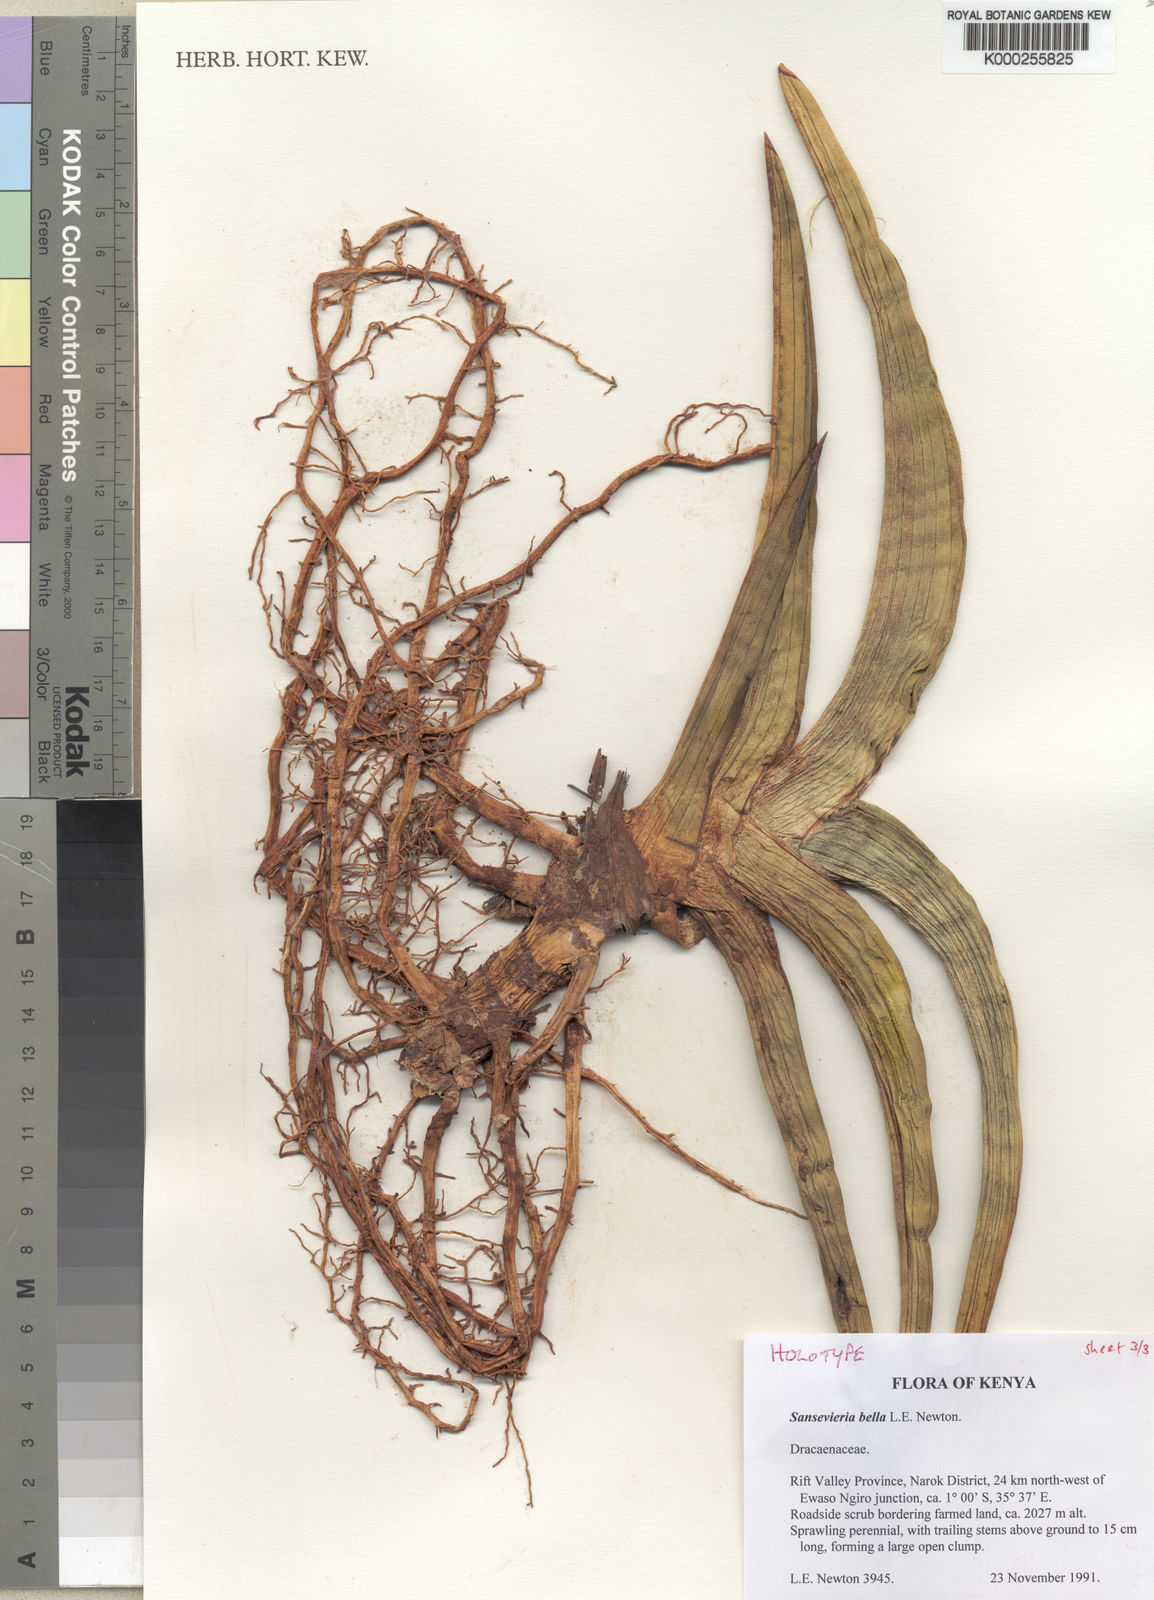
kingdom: Plantae
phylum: Tracheophyta
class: Liliopsida
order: Asparagales
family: Asparagaceae
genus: Dracaena
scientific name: Dracaena
